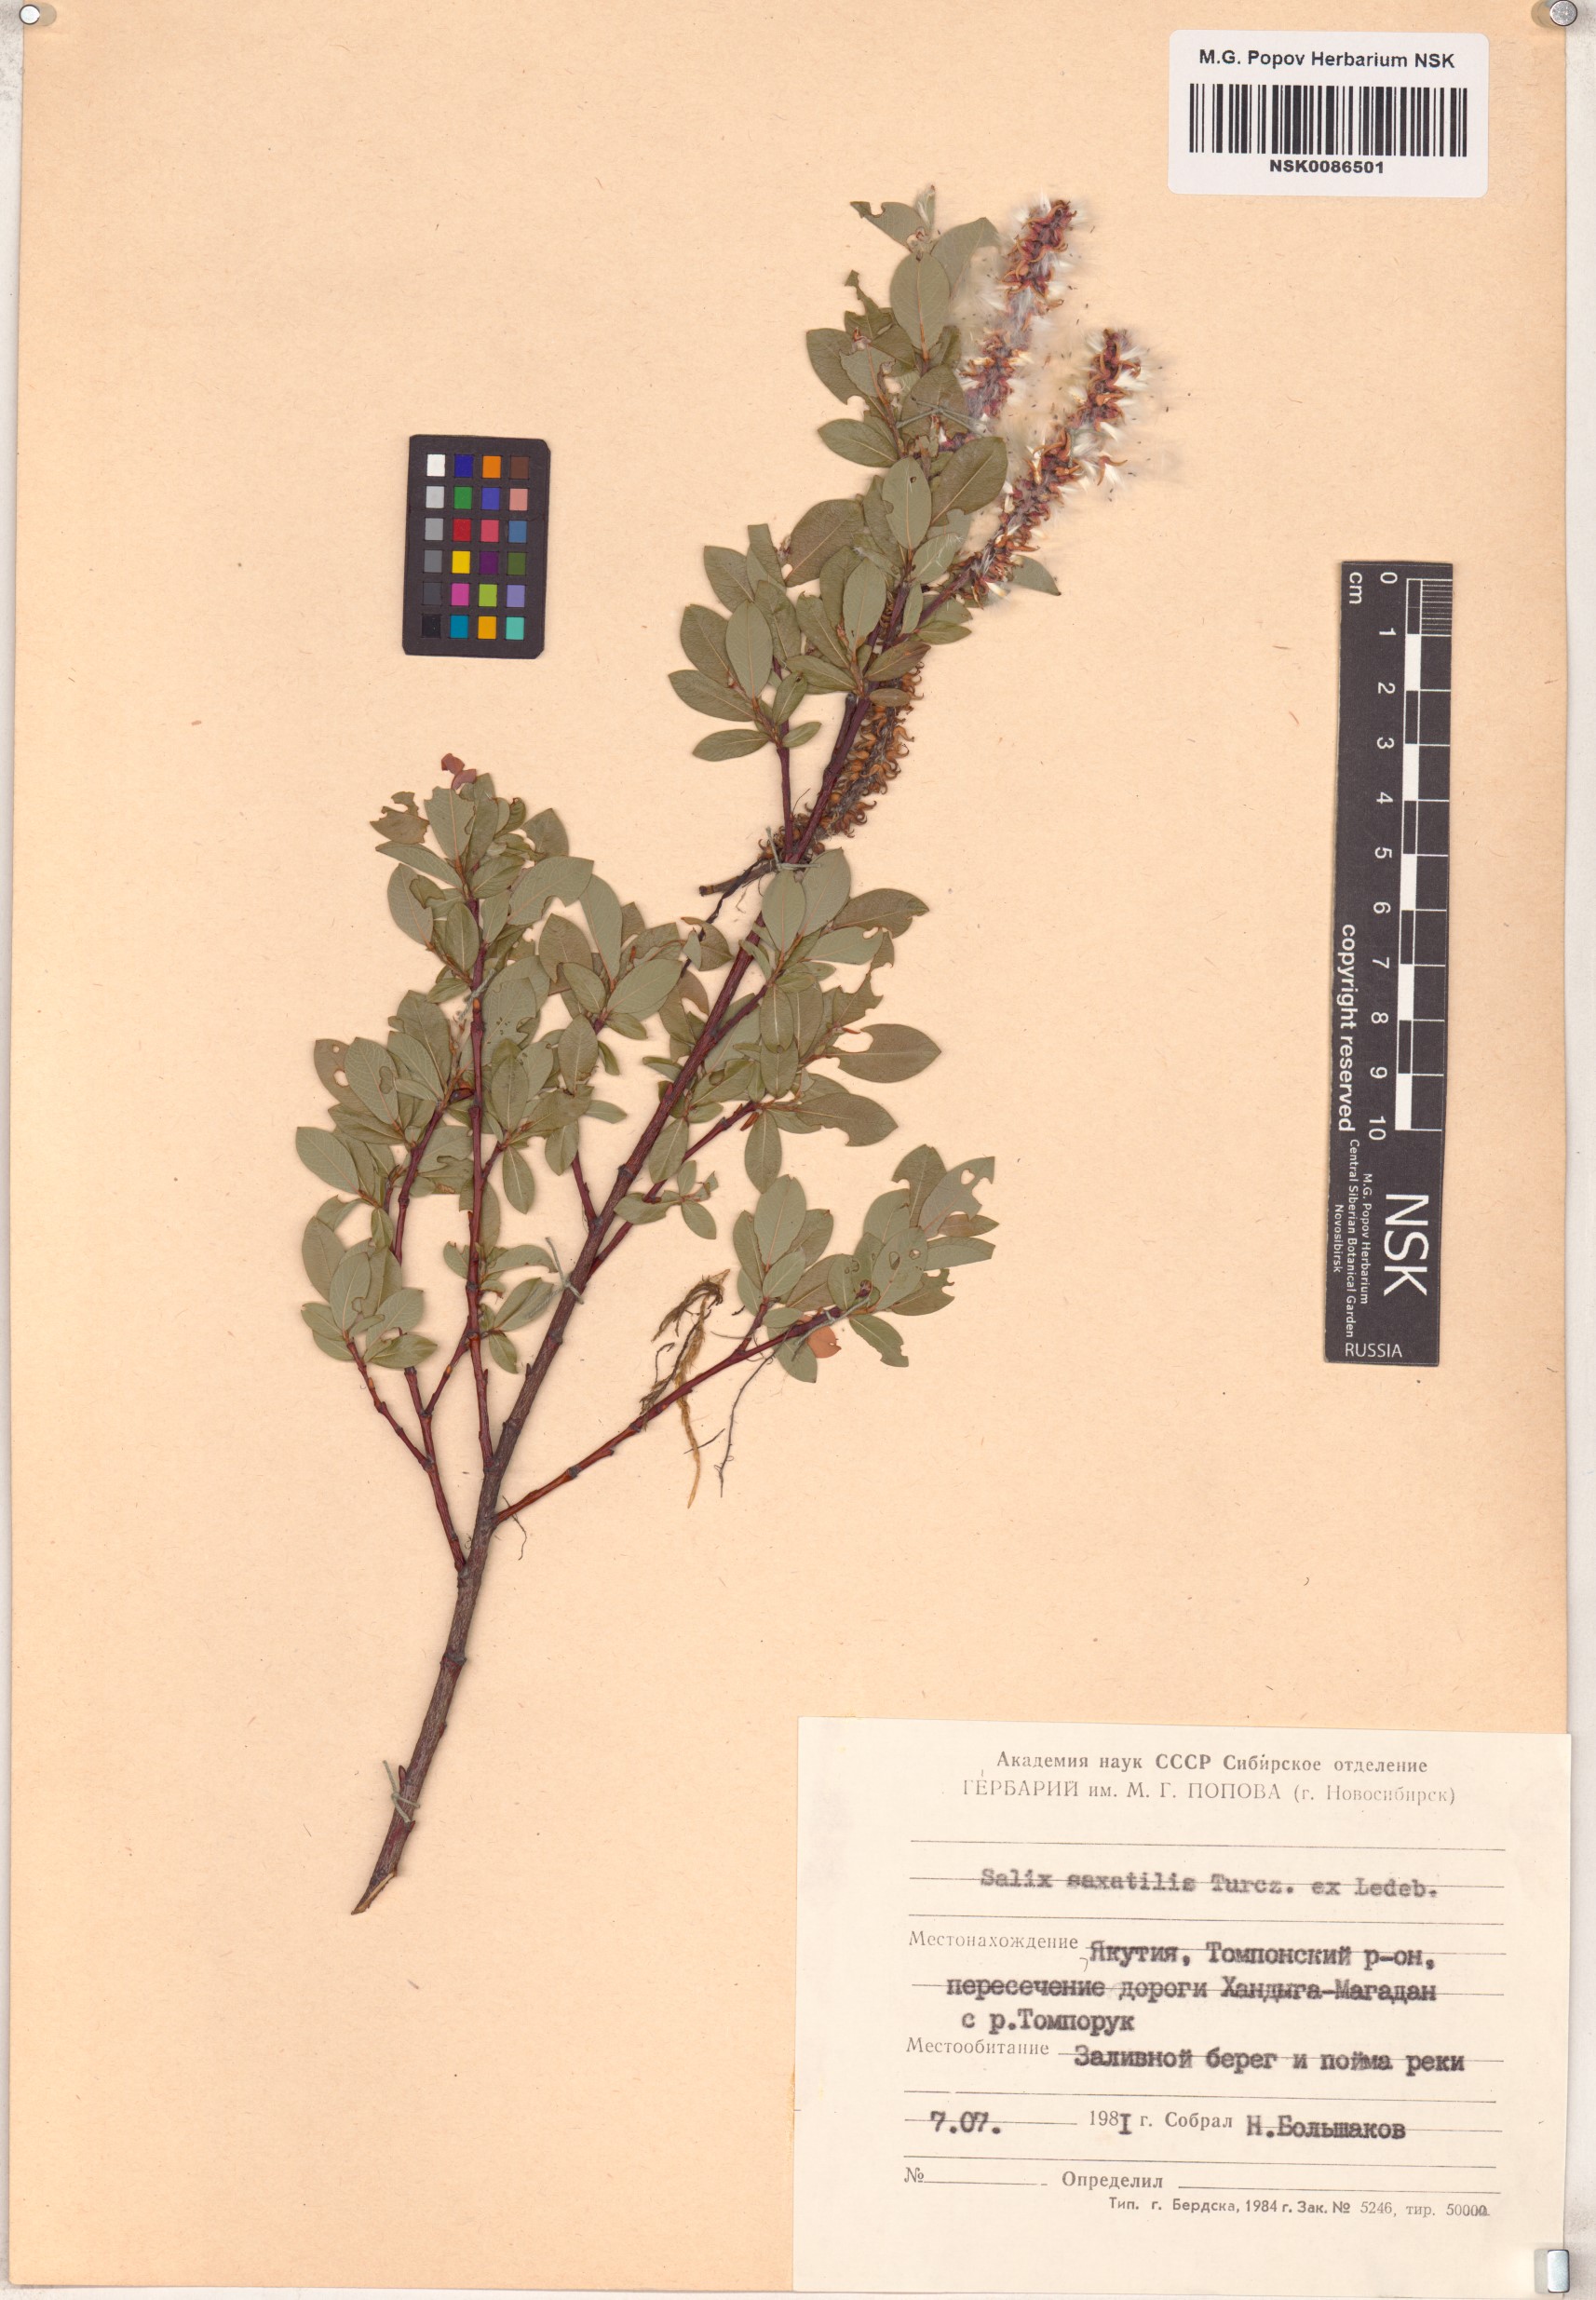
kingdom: Plantae
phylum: Tracheophyta
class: Magnoliopsida
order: Malpighiales
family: Salicaceae
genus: Salix
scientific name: Salix saxatilis
